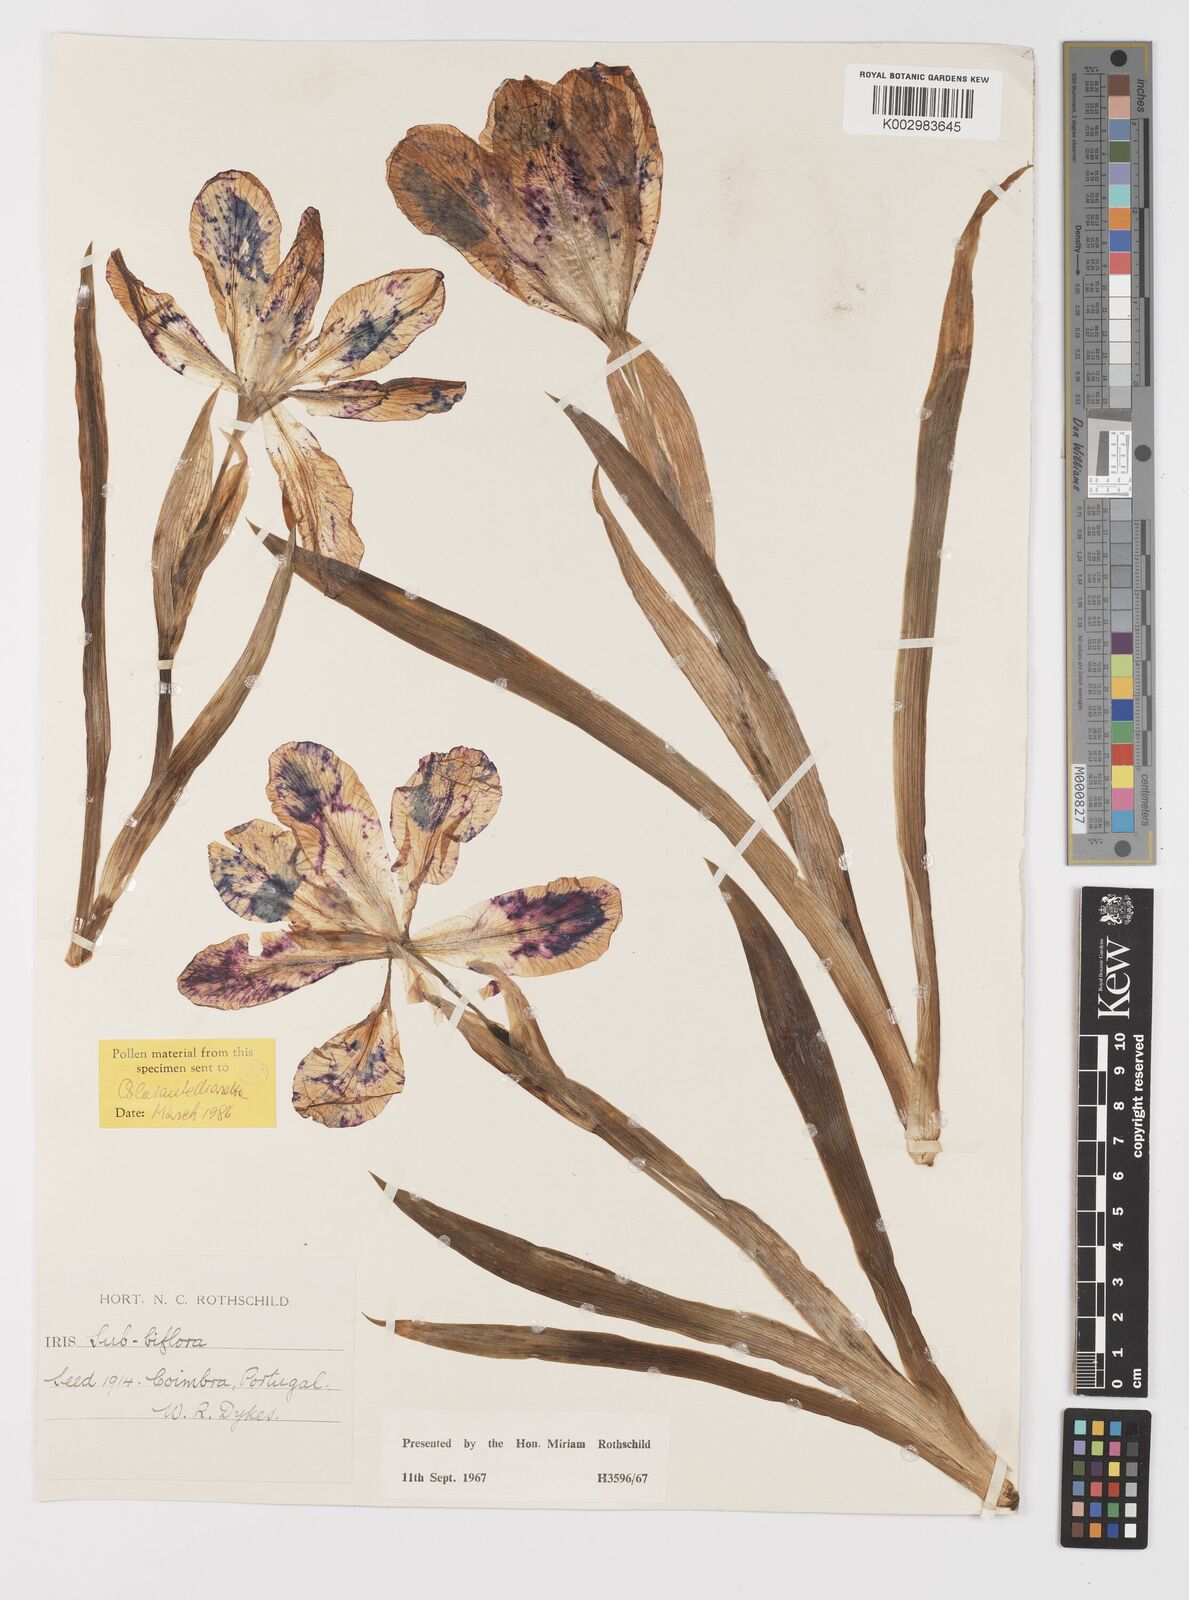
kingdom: Plantae
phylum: Tracheophyta
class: Liliopsida
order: Asparagales
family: Iridaceae
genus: Iris
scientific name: Iris lutescens
